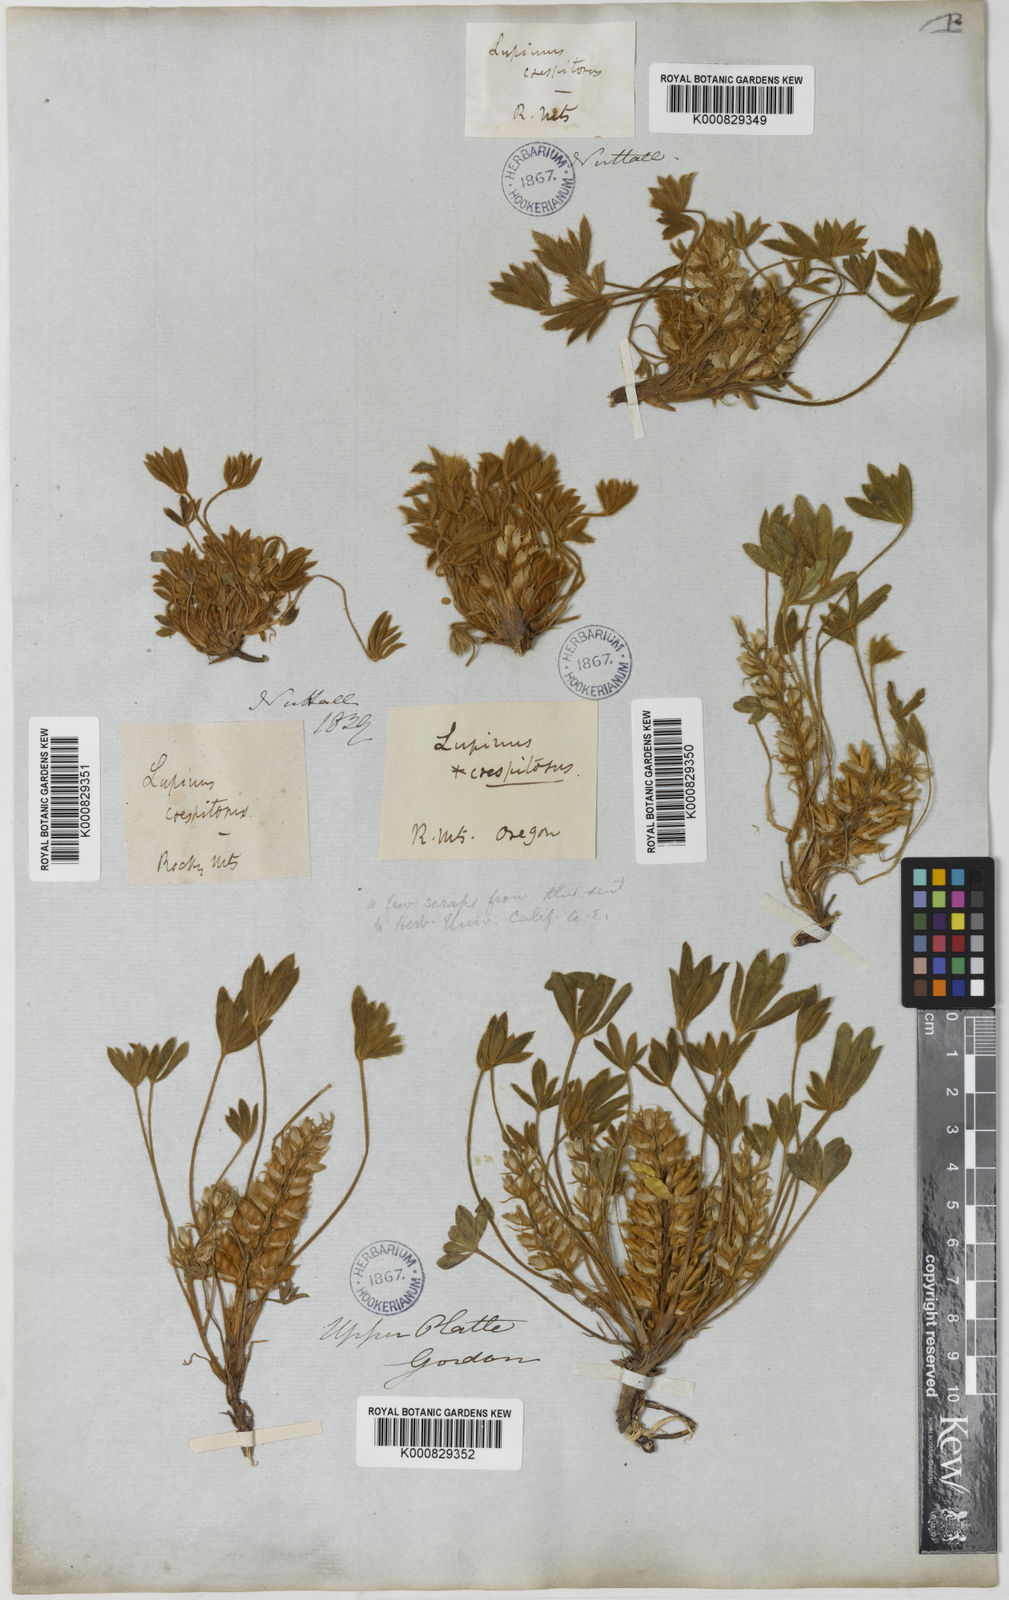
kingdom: Plantae
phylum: Tracheophyta
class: Magnoliopsida
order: Fabales
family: Fabaceae
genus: Lupinus
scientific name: Lupinus caespitosus
